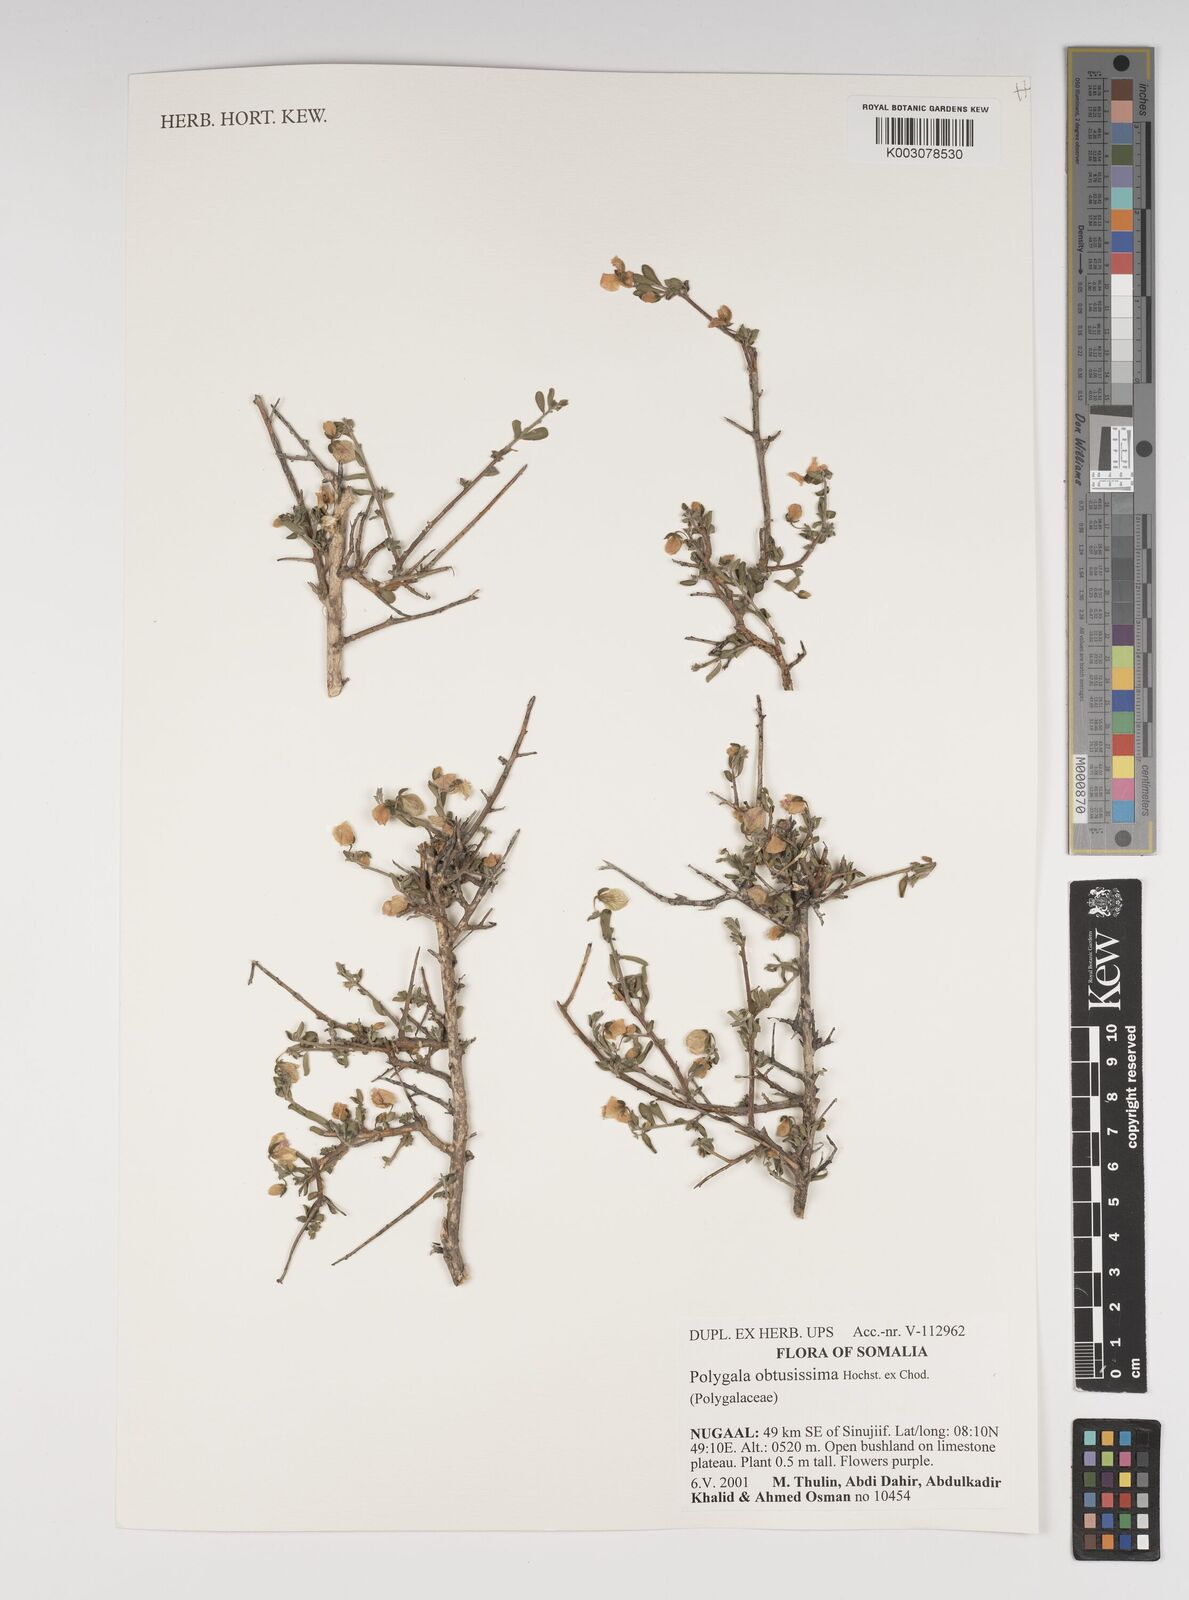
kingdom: Plantae
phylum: Tracheophyta
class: Magnoliopsida
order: Fabales
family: Polygalaceae
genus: Polygala
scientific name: Polygala senensis
